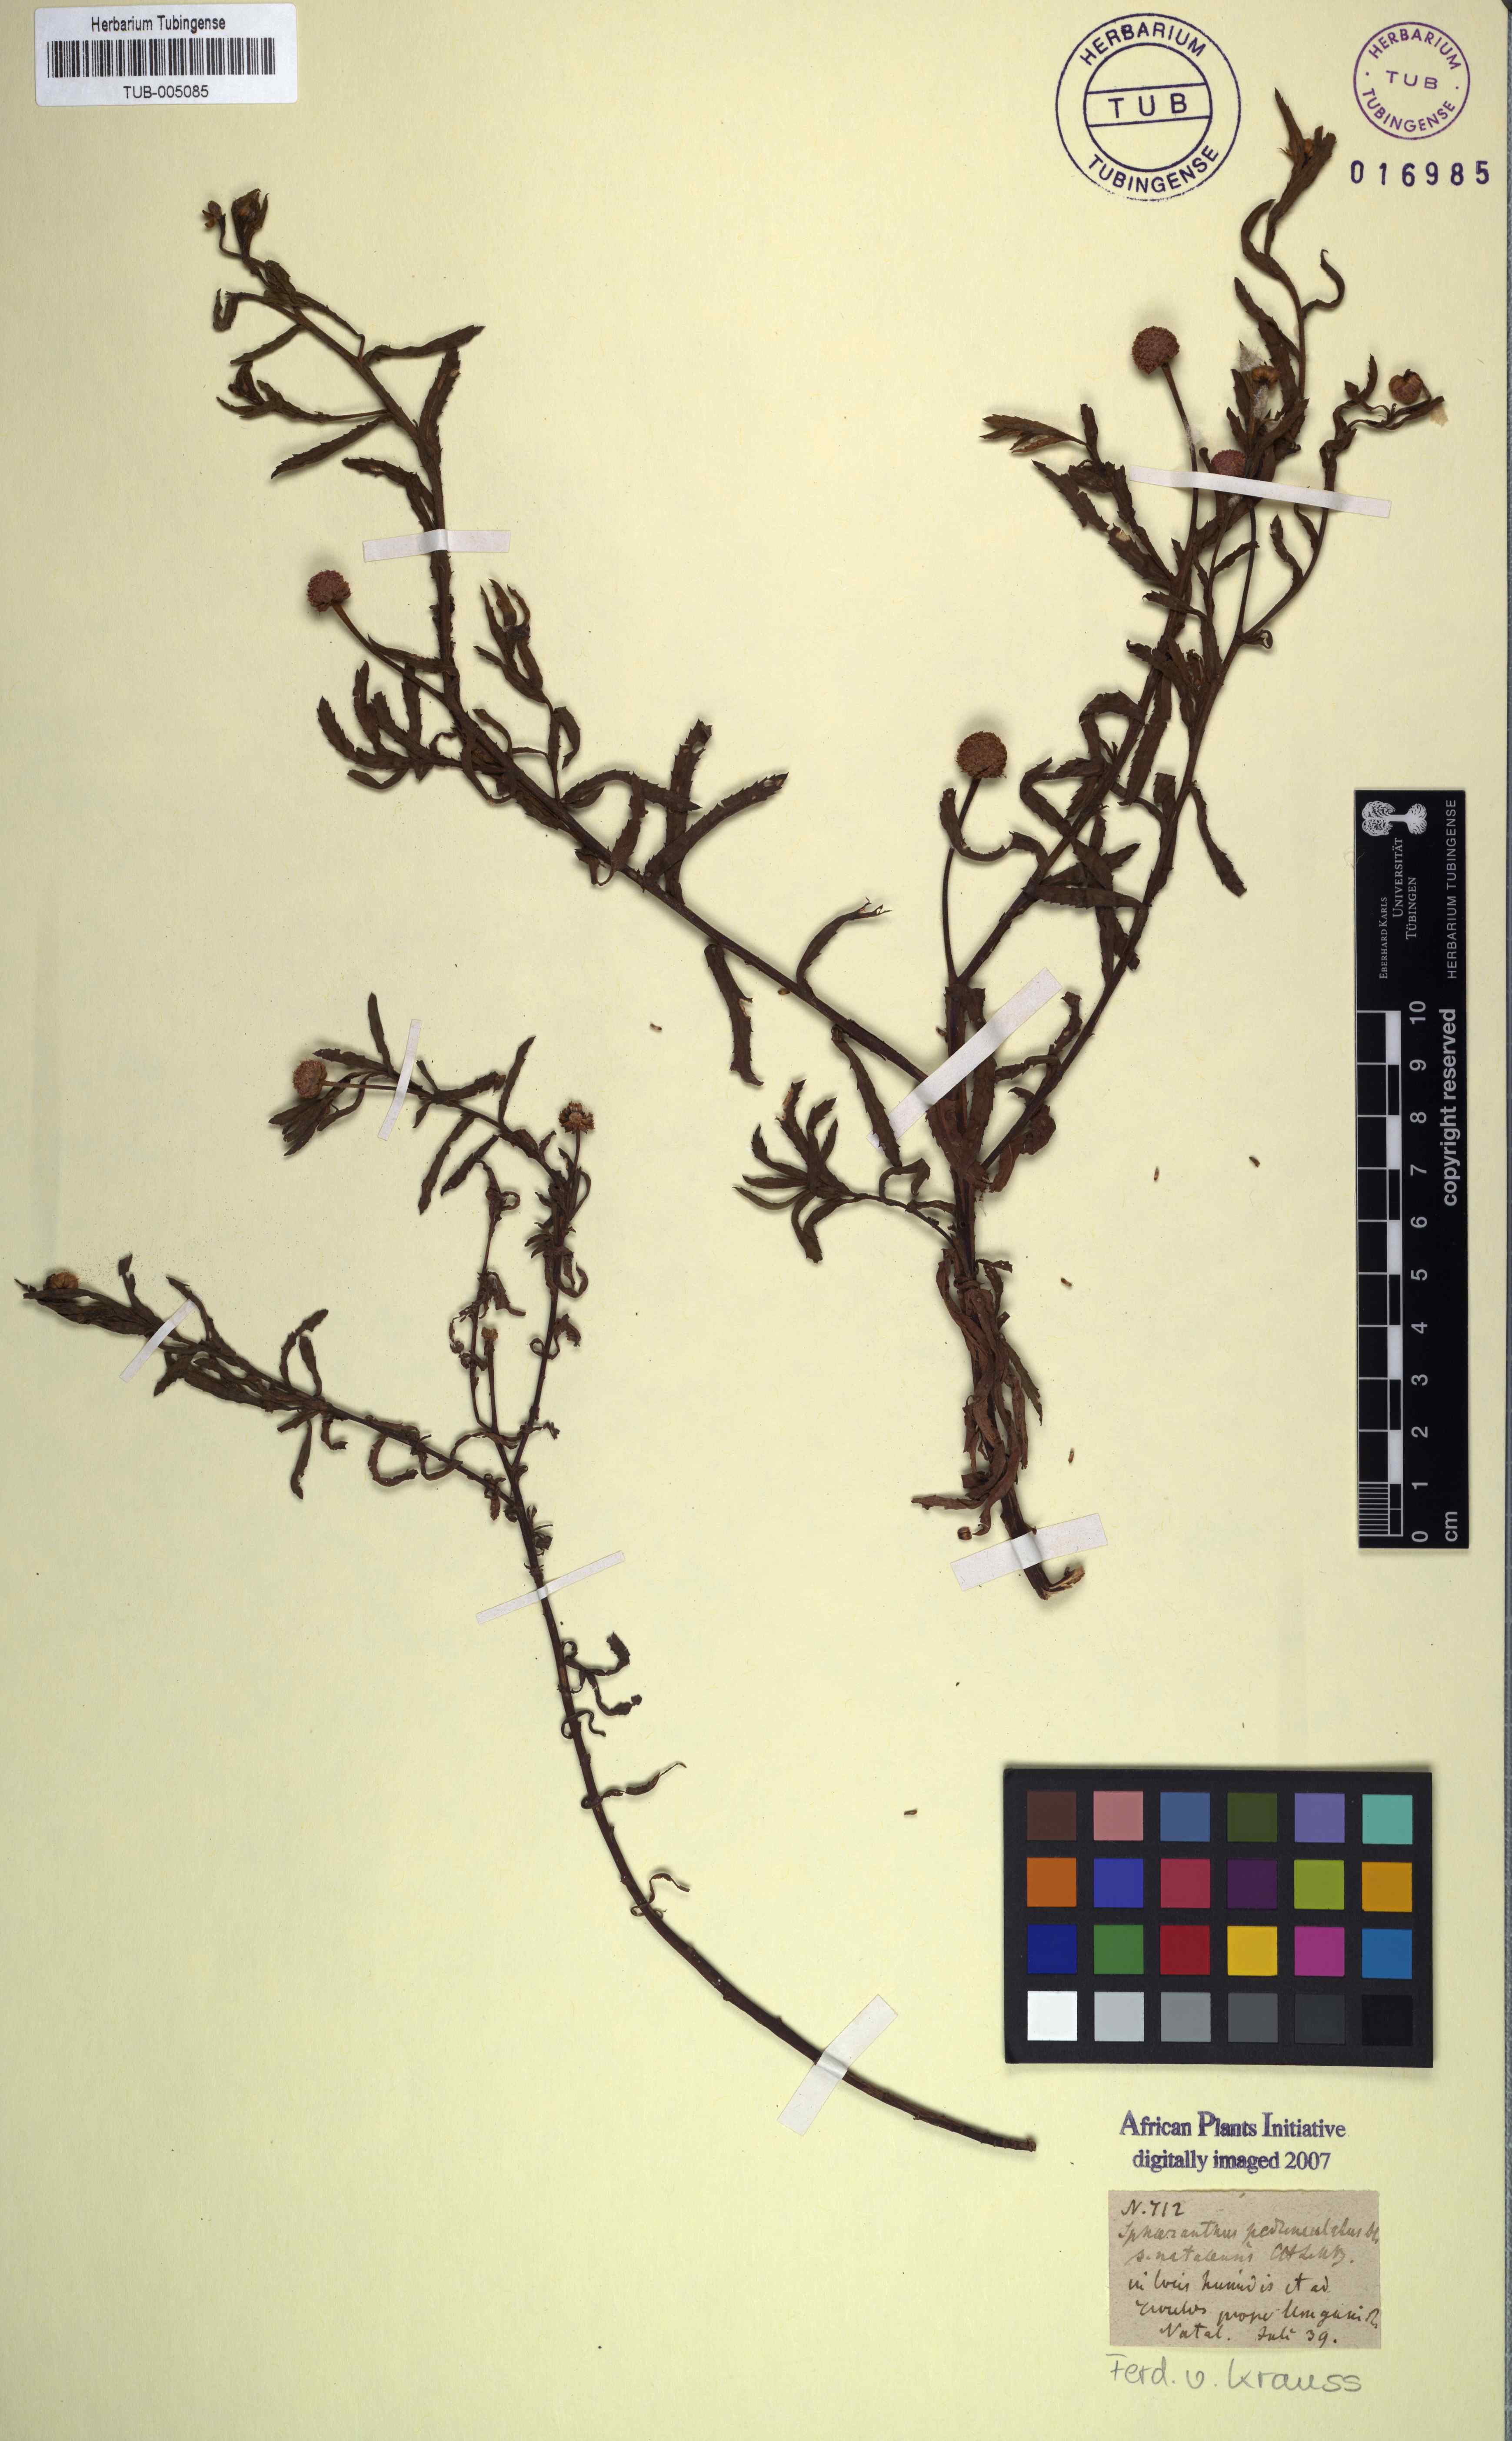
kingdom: Plantae
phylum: Tracheophyta
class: Magnoliopsida
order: Asterales
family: Asteraceae
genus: Sphaeranthus
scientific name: Sphaeranthus peduncularis
